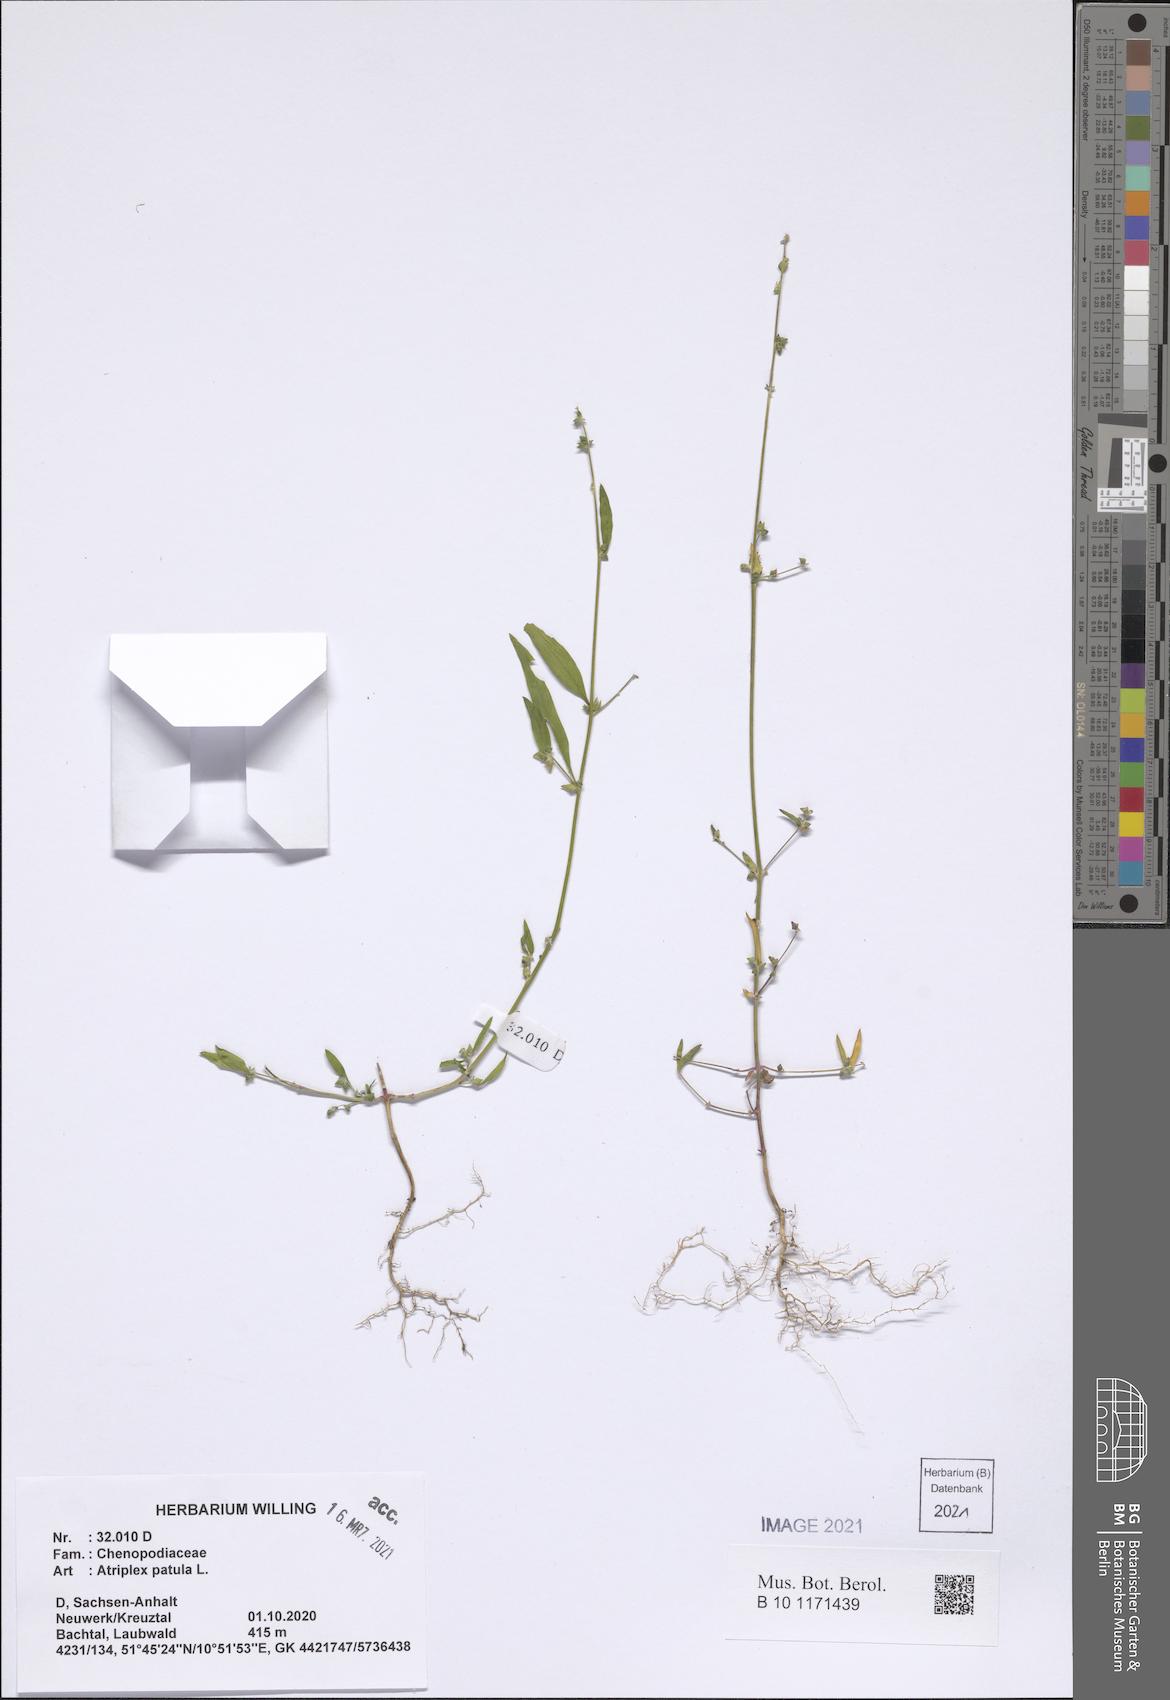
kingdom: Plantae
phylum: Tracheophyta
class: Magnoliopsida
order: Caryophyllales
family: Amaranthaceae
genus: Atriplex
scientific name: Atriplex patula
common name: Common orache
